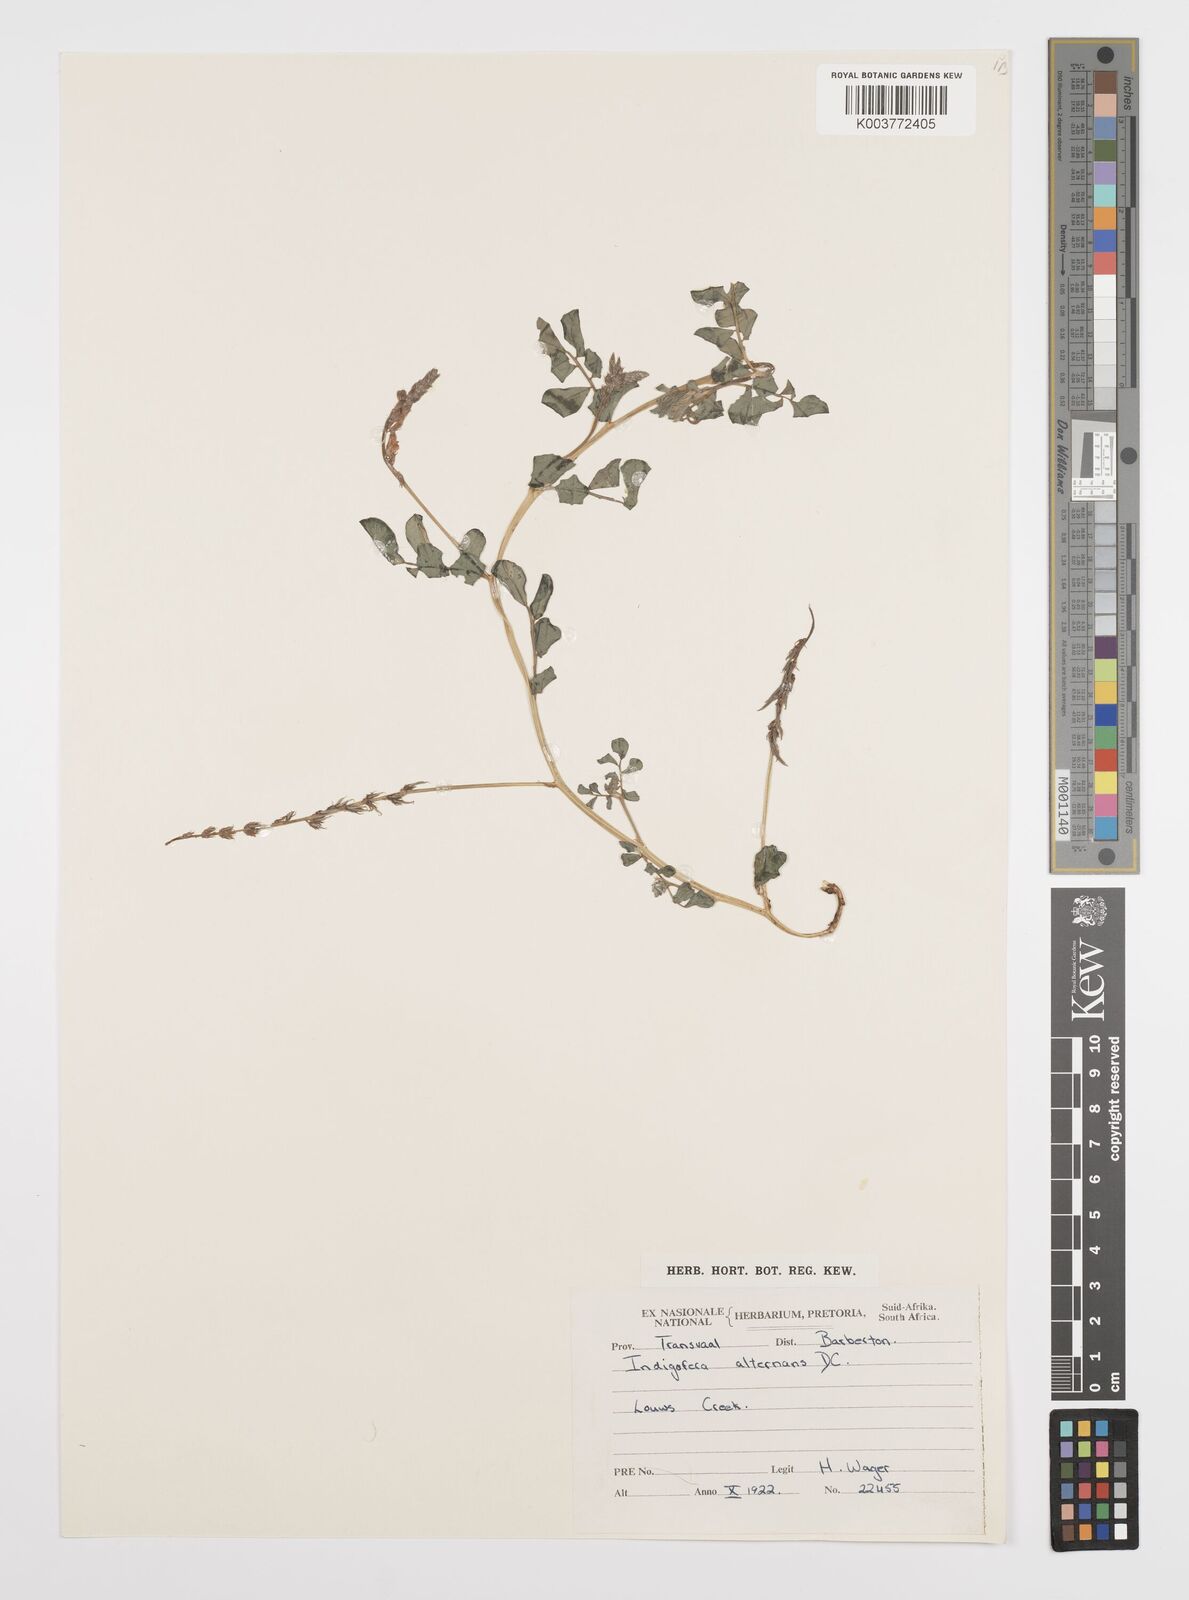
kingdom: Plantae
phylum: Tracheophyta
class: Magnoliopsida
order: Fabales
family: Fabaceae
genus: Indigofera
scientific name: Indigofera spicata
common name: Creeping indigo
